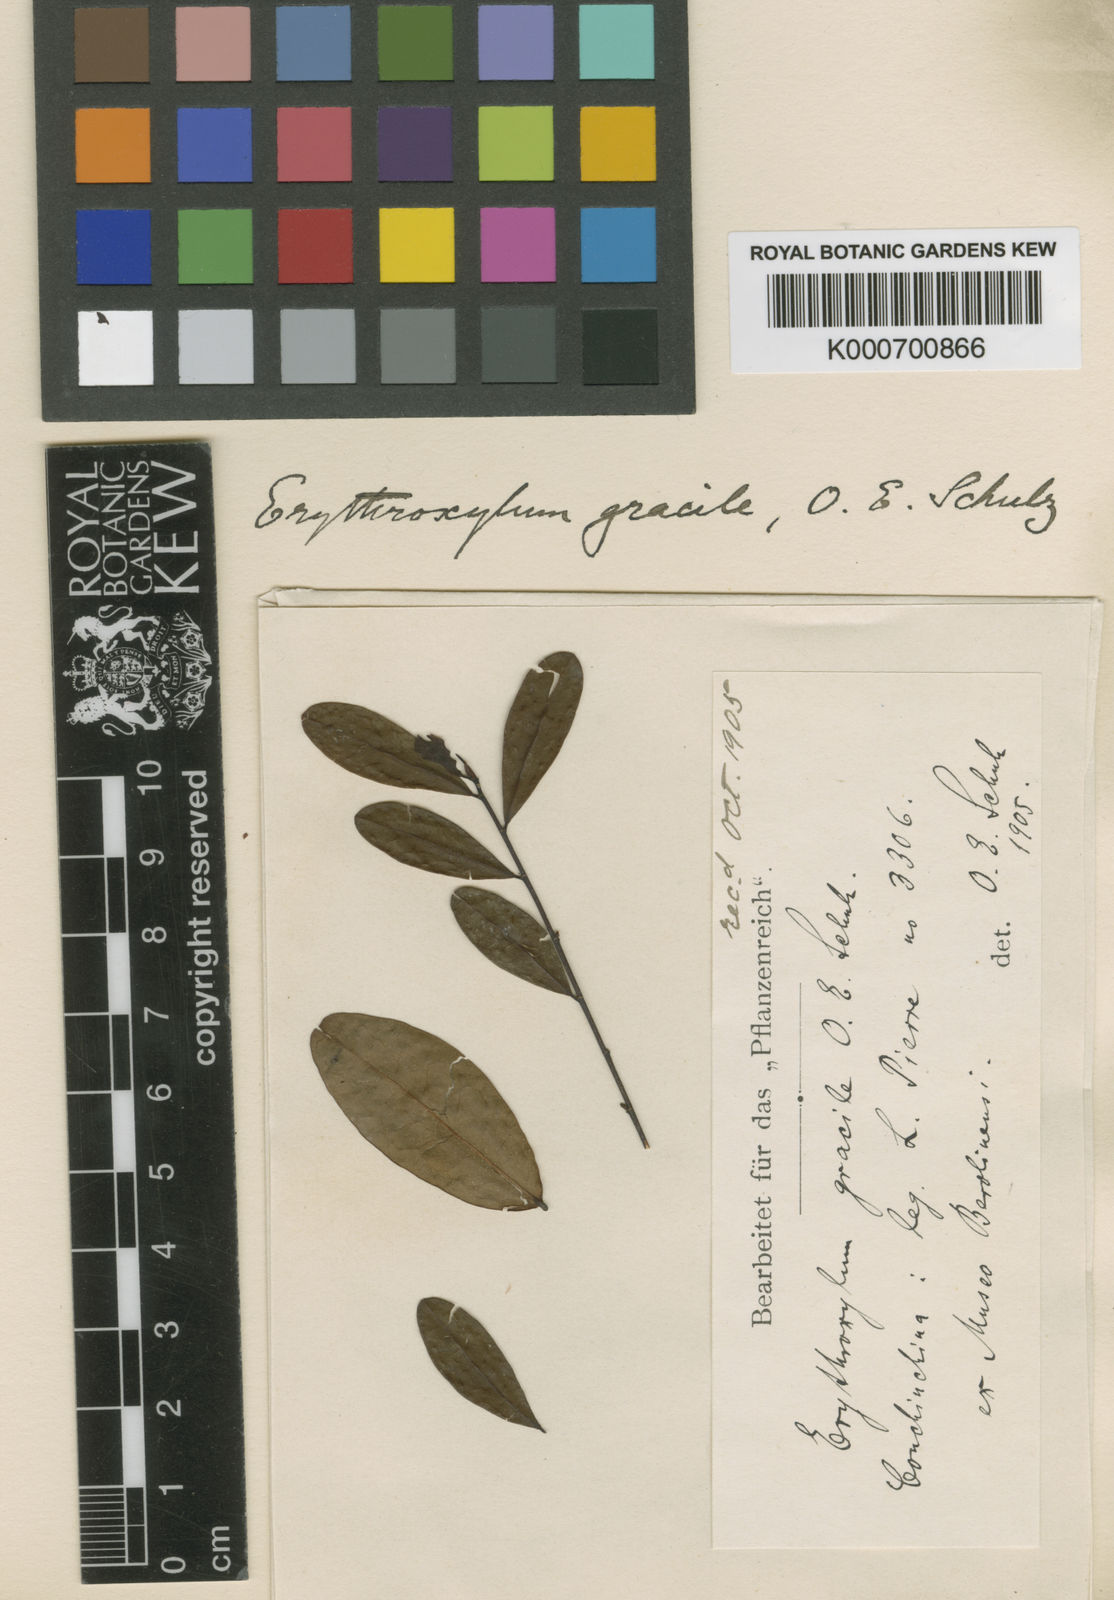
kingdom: Plantae
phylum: Tracheophyta
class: Magnoliopsida
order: Malpighiales
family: Erythroxylaceae
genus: Erythroxylum
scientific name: Erythroxylum gracile
